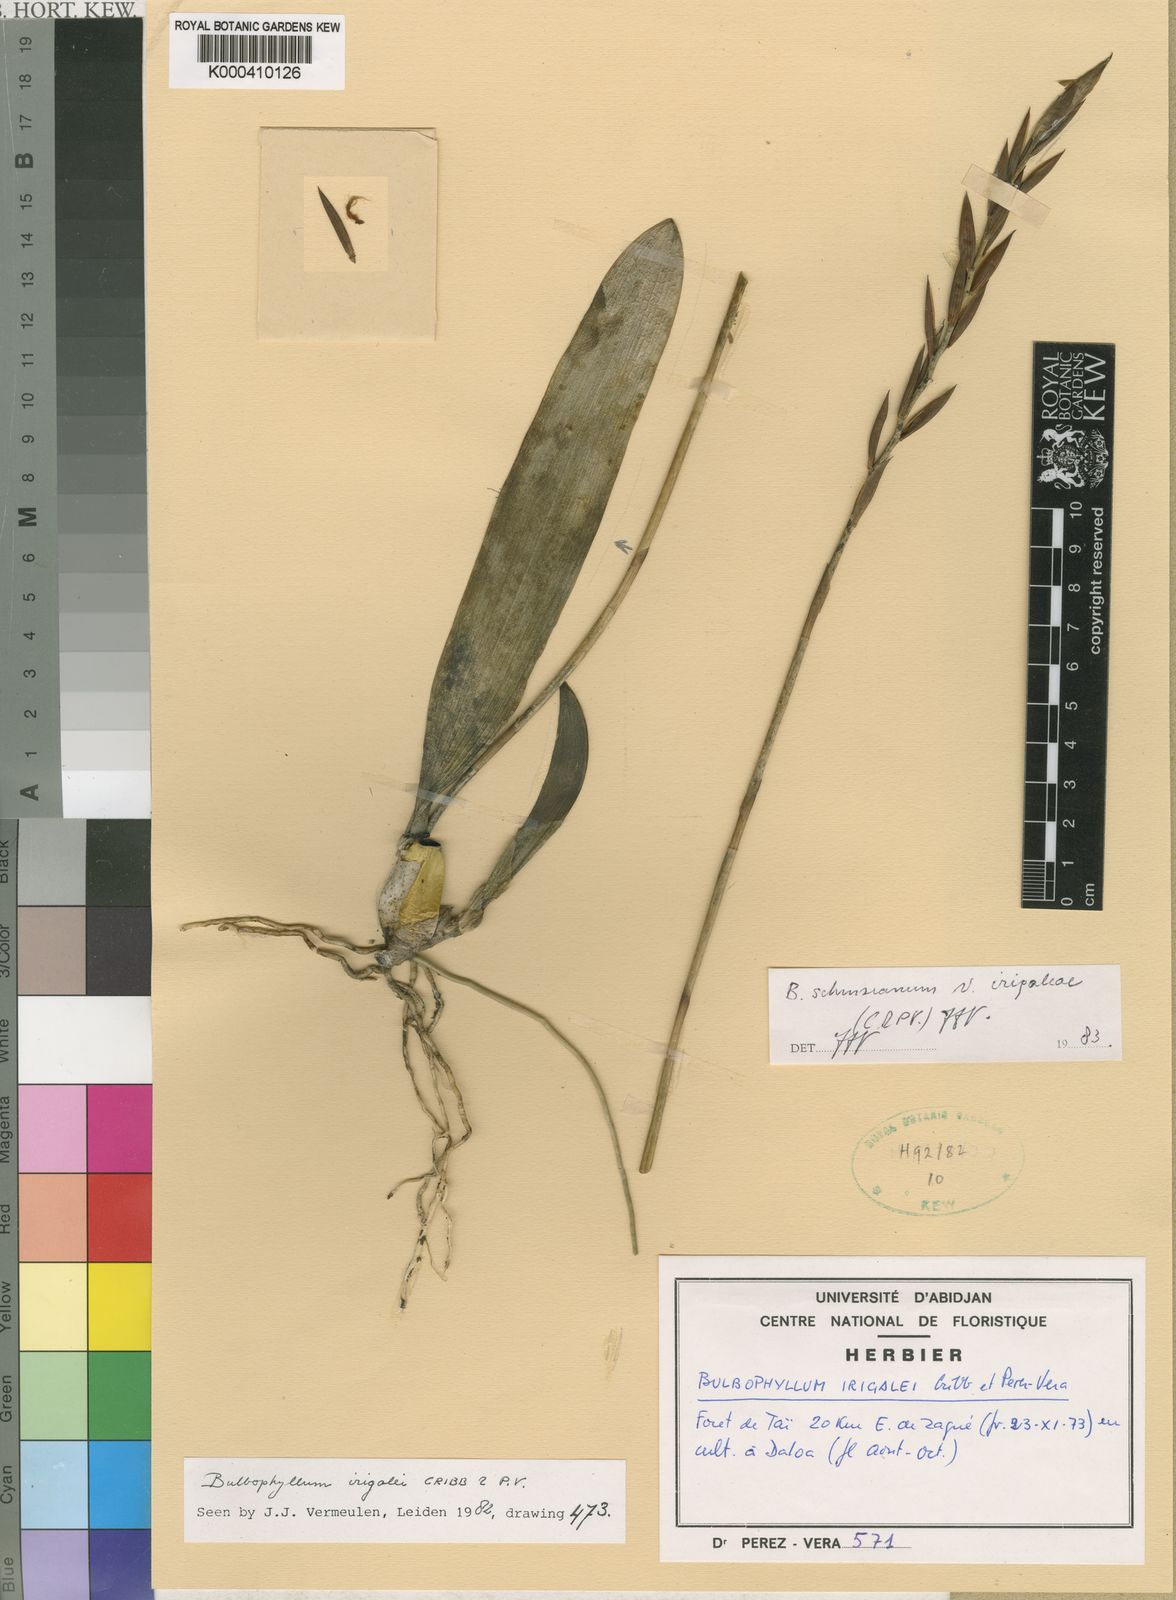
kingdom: Plantae
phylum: Tracheophyta
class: Liliopsida
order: Asparagales
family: Orchidaceae
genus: Bulbophyllum
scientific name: Bulbophyllum schinzianum
